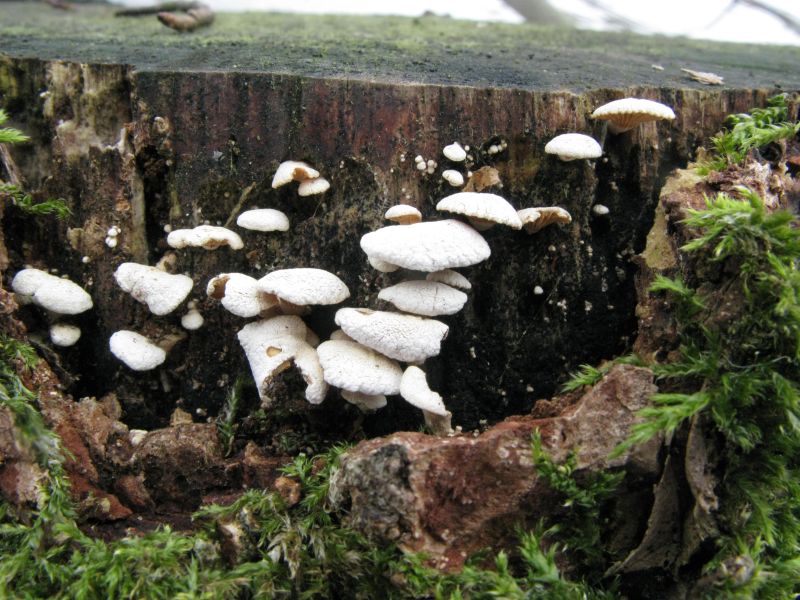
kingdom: Fungi
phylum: Basidiomycota
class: Agaricomycetes
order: Agaricales
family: Mycenaceae
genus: Panellus
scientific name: Panellus stipticus
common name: kliddet epaulethat
